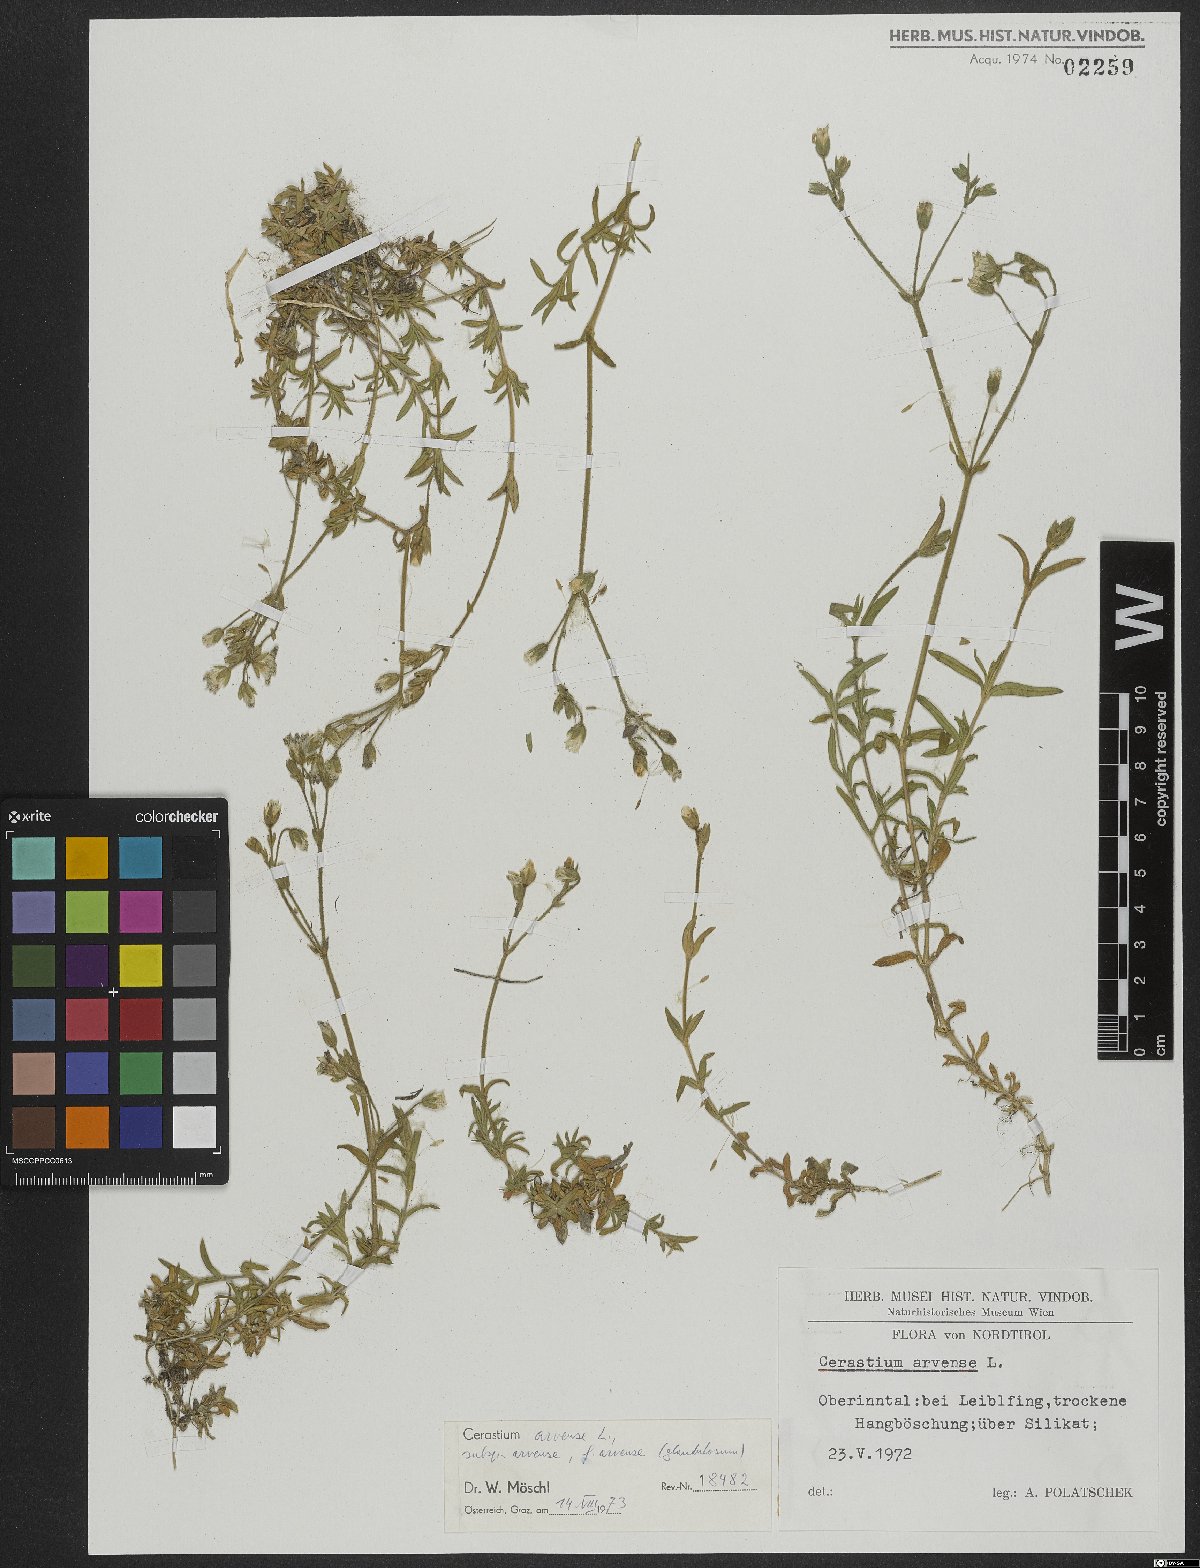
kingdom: Plantae
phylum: Tracheophyta
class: Magnoliopsida
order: Caryophyllales
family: Caryophyllaceae
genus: Cerastium
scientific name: Cerastium arvense
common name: Field mouse-ear
